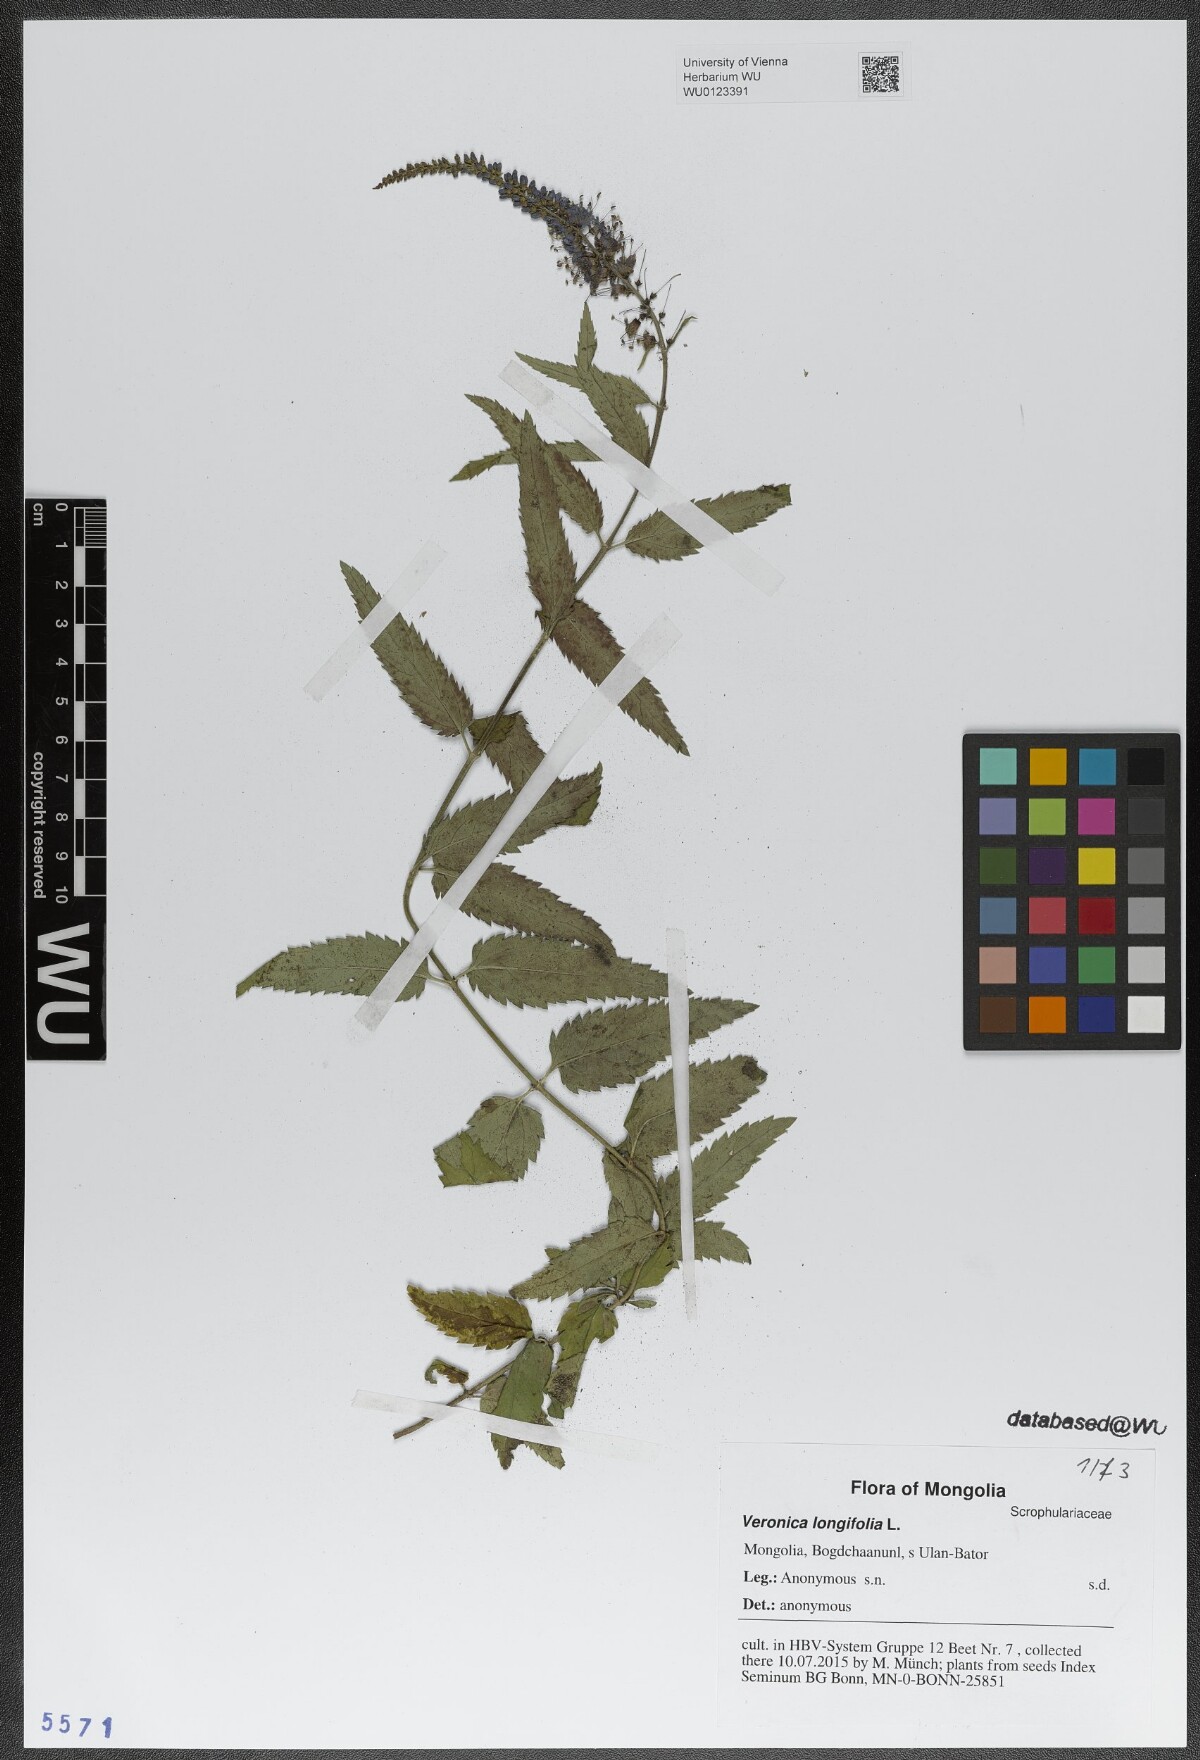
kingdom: Plantae
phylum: Tracheophyta
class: Magnoliopsida
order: Lamiales
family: Plantaginaceae
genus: Veronica
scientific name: Veronica longifolia
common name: Garden speedwell
